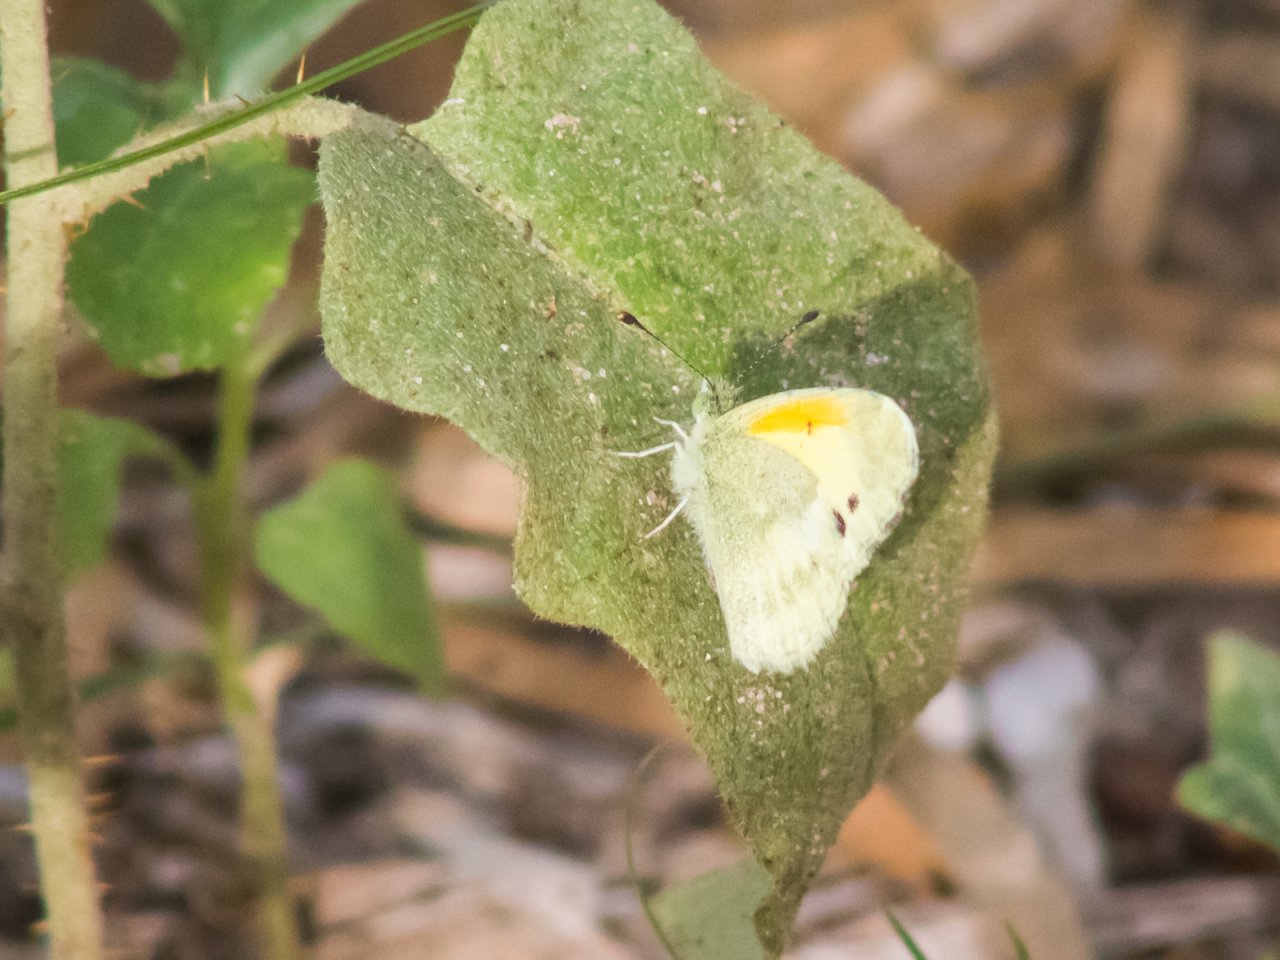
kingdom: Animalia
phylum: Arthropoda
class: Insecta
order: Lepidoptera
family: Pieridae
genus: Nathalis
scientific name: Nathalis iole
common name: Dainty Sulphur
